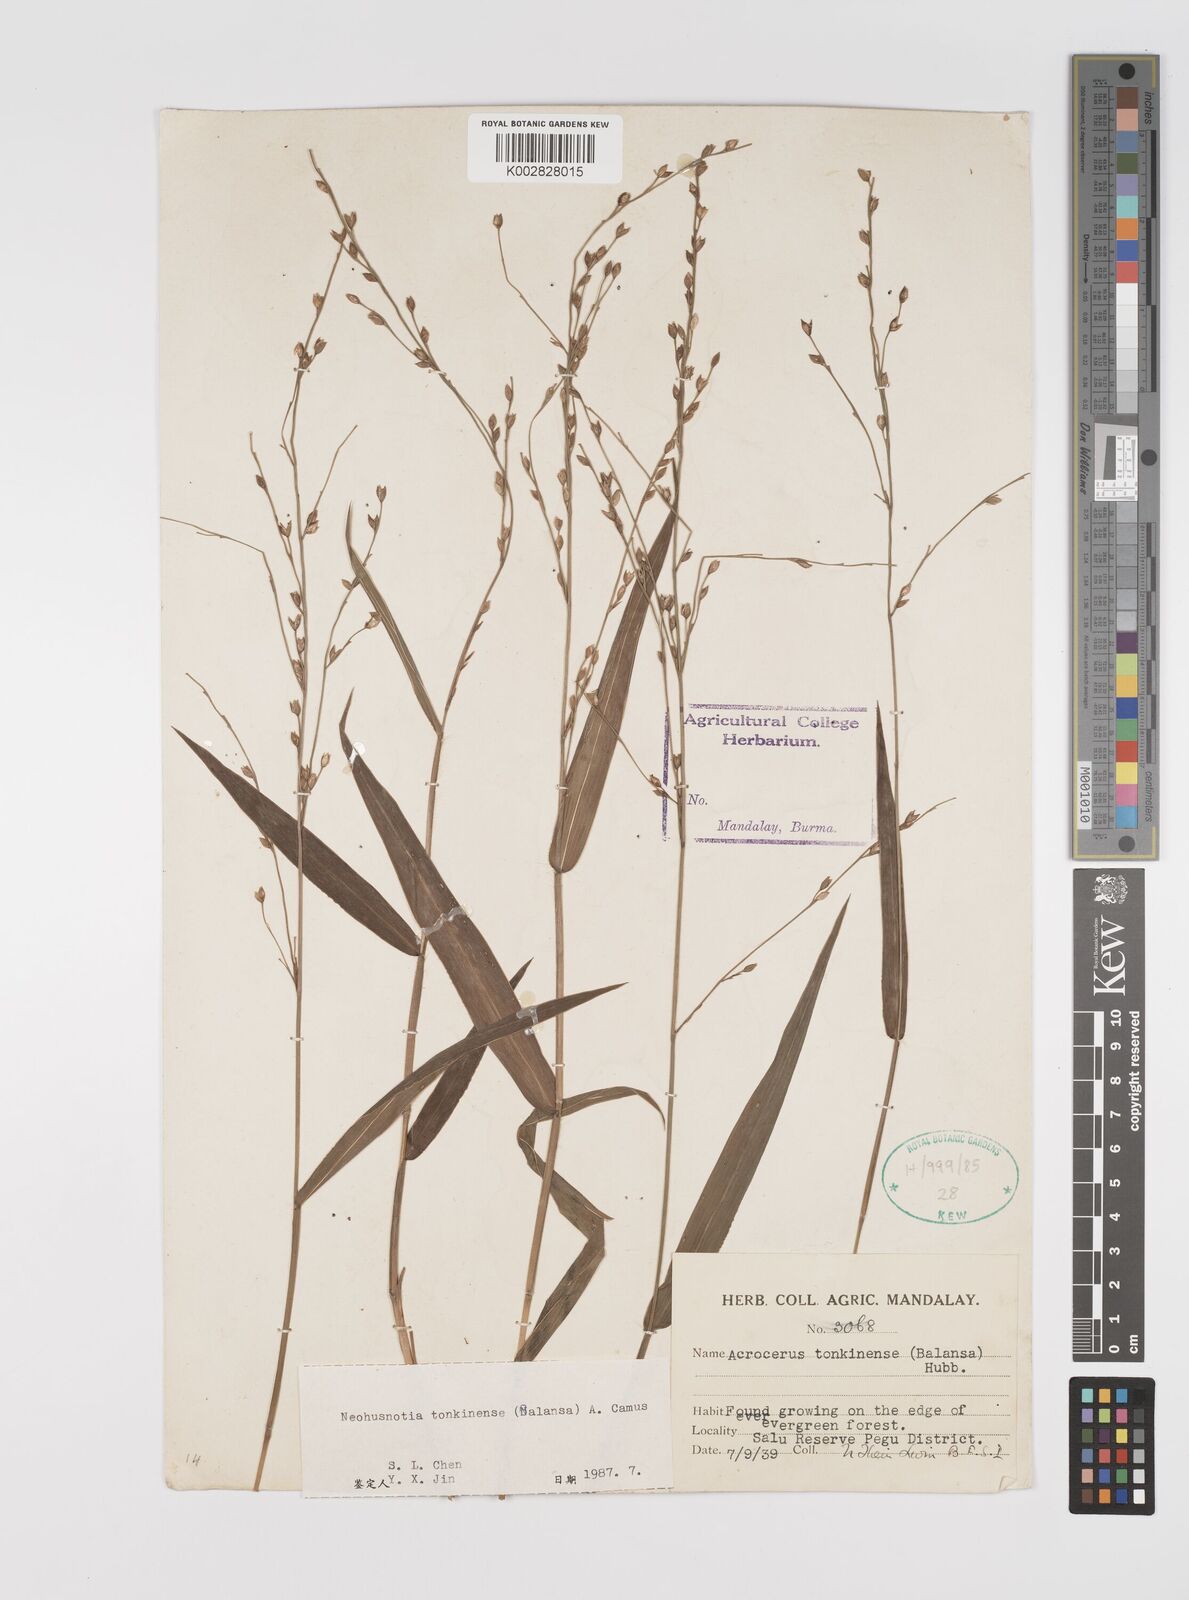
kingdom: Plantae
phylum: Tracheophyta
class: Liliopsida
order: Poales
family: Poaceae
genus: Acroceras
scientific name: Acroceras
